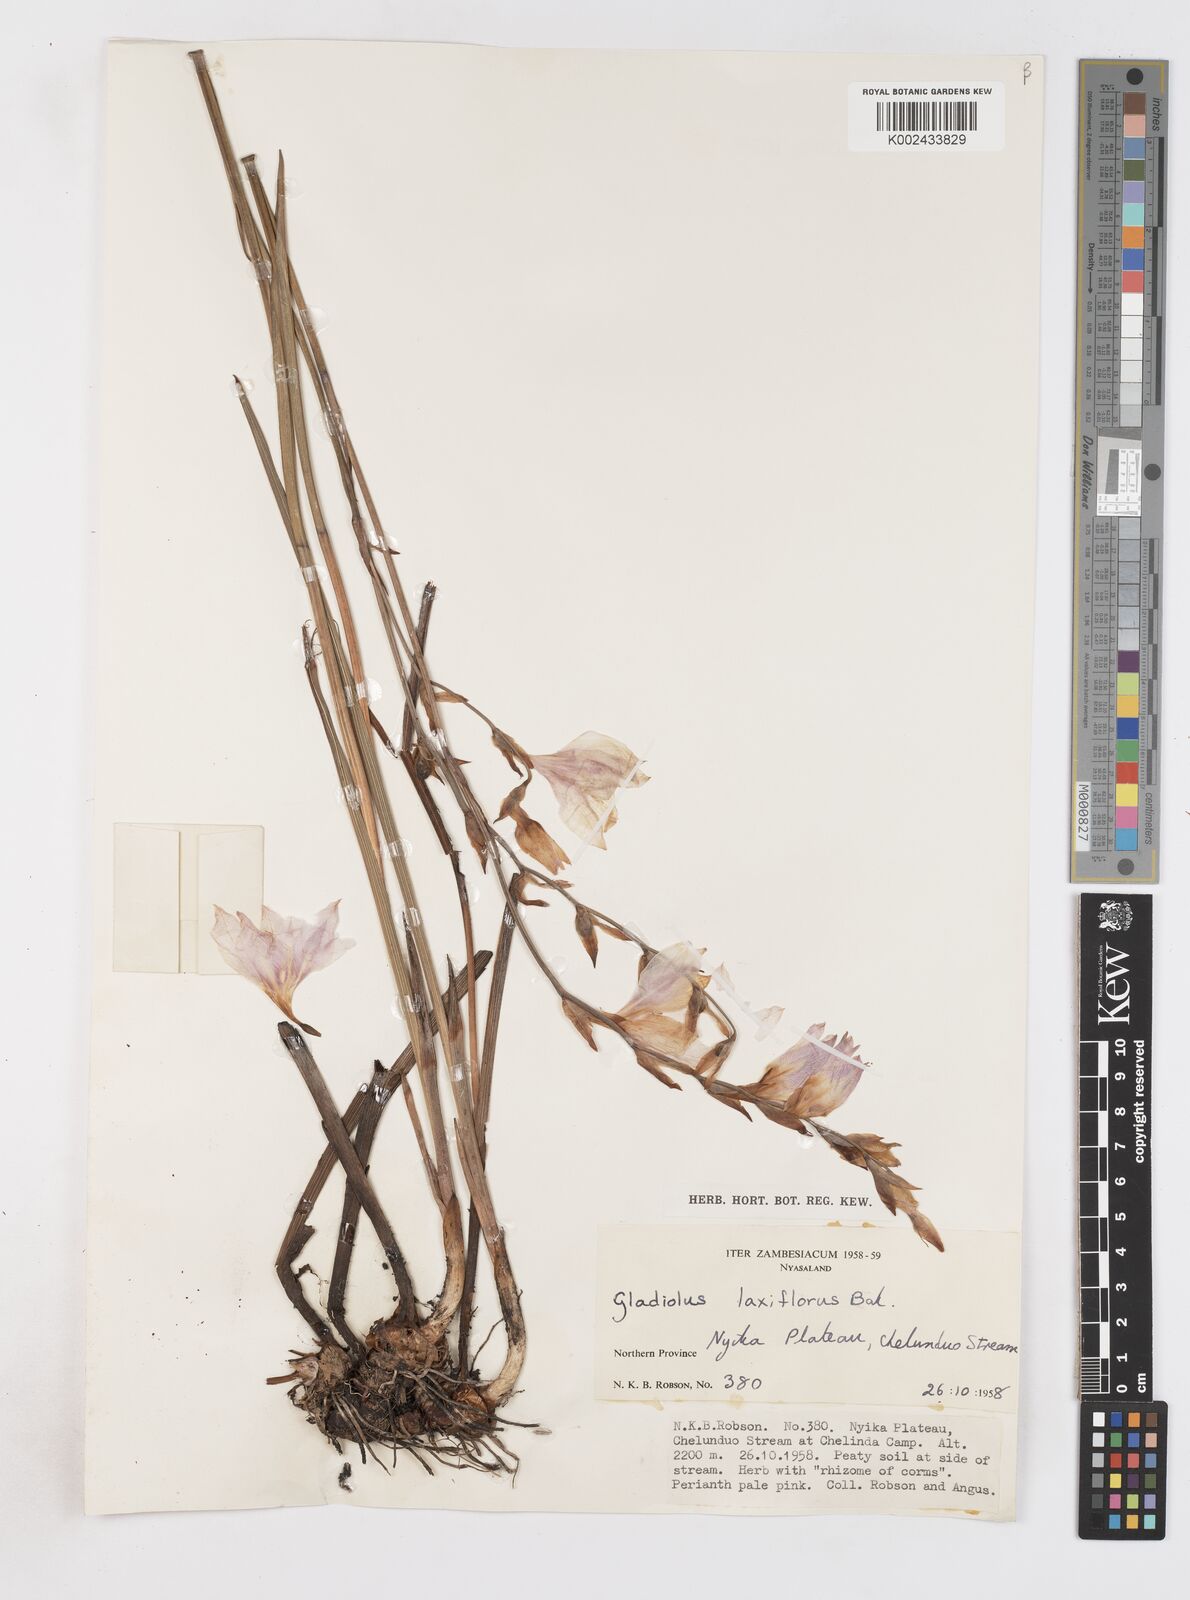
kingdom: Plantae
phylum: Tracheophyta
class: Liliopsida
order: Asparagales
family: Iridaceae
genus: Gladiolus
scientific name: Gladiolus laxiflorus
